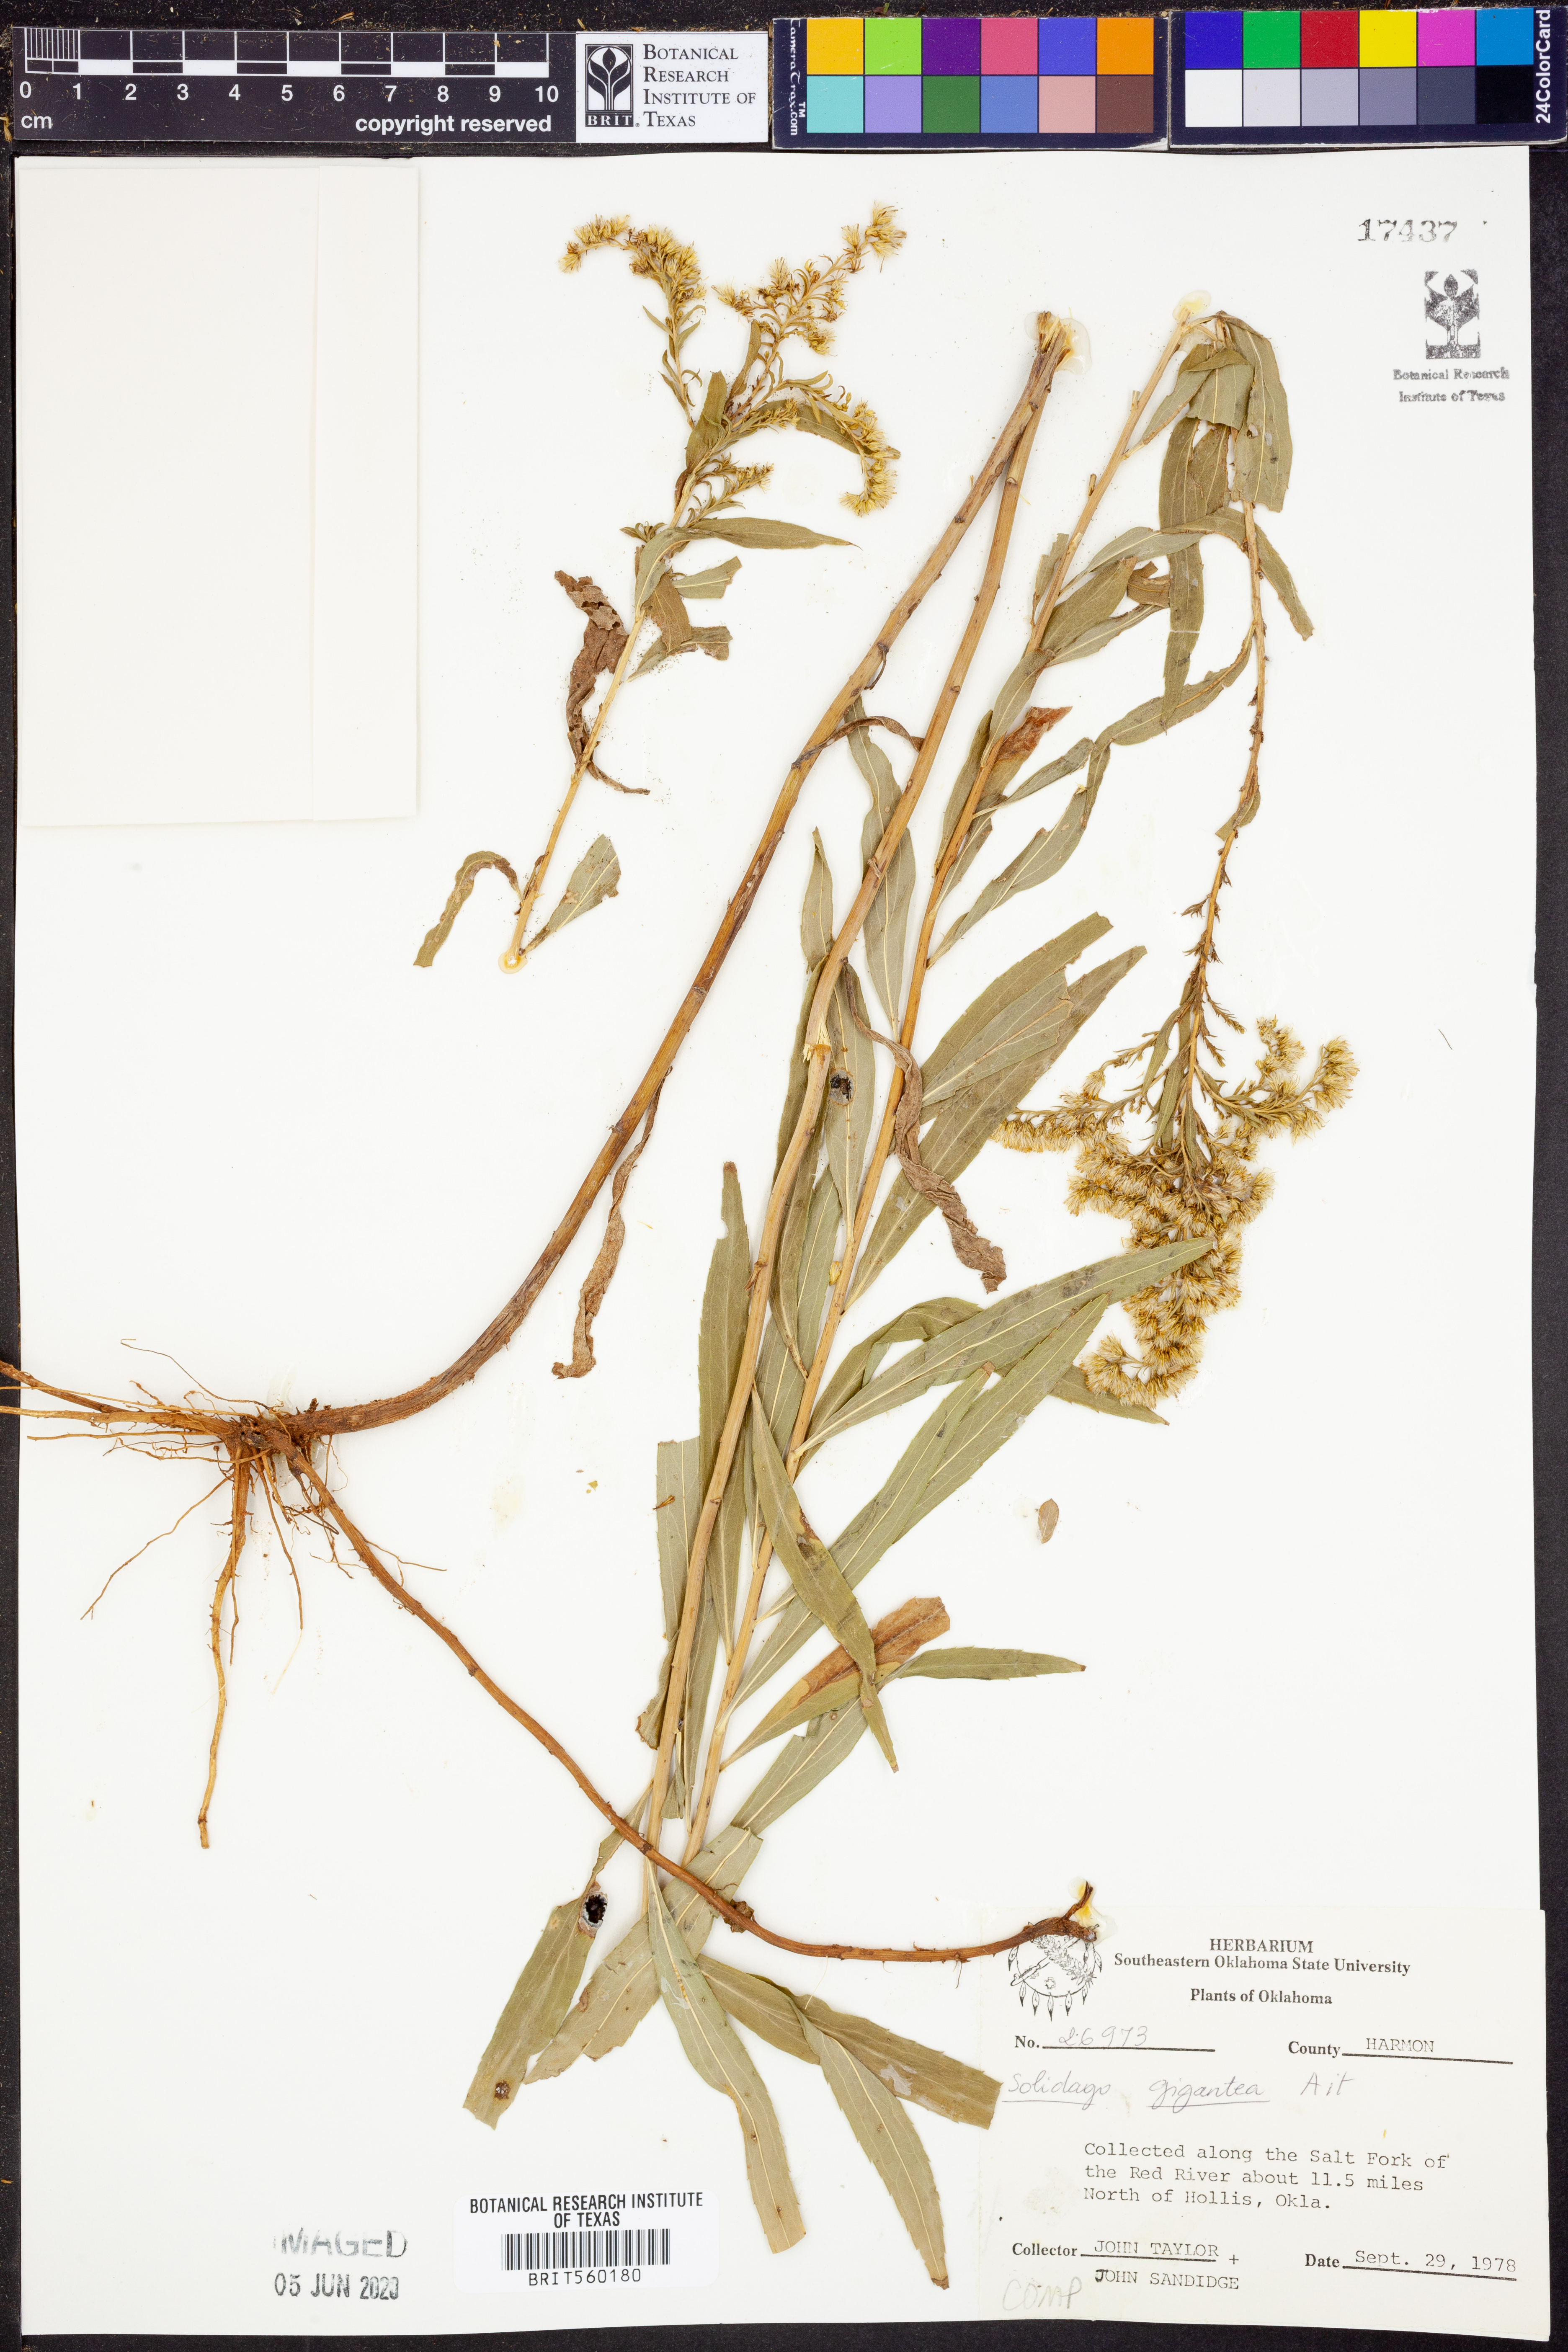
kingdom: Plantae
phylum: Tracheophyta
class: Magnoliopsida
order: Asterales
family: Asteraceae
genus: Solidago
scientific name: Solidago gigantea
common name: Giant goldenrod
